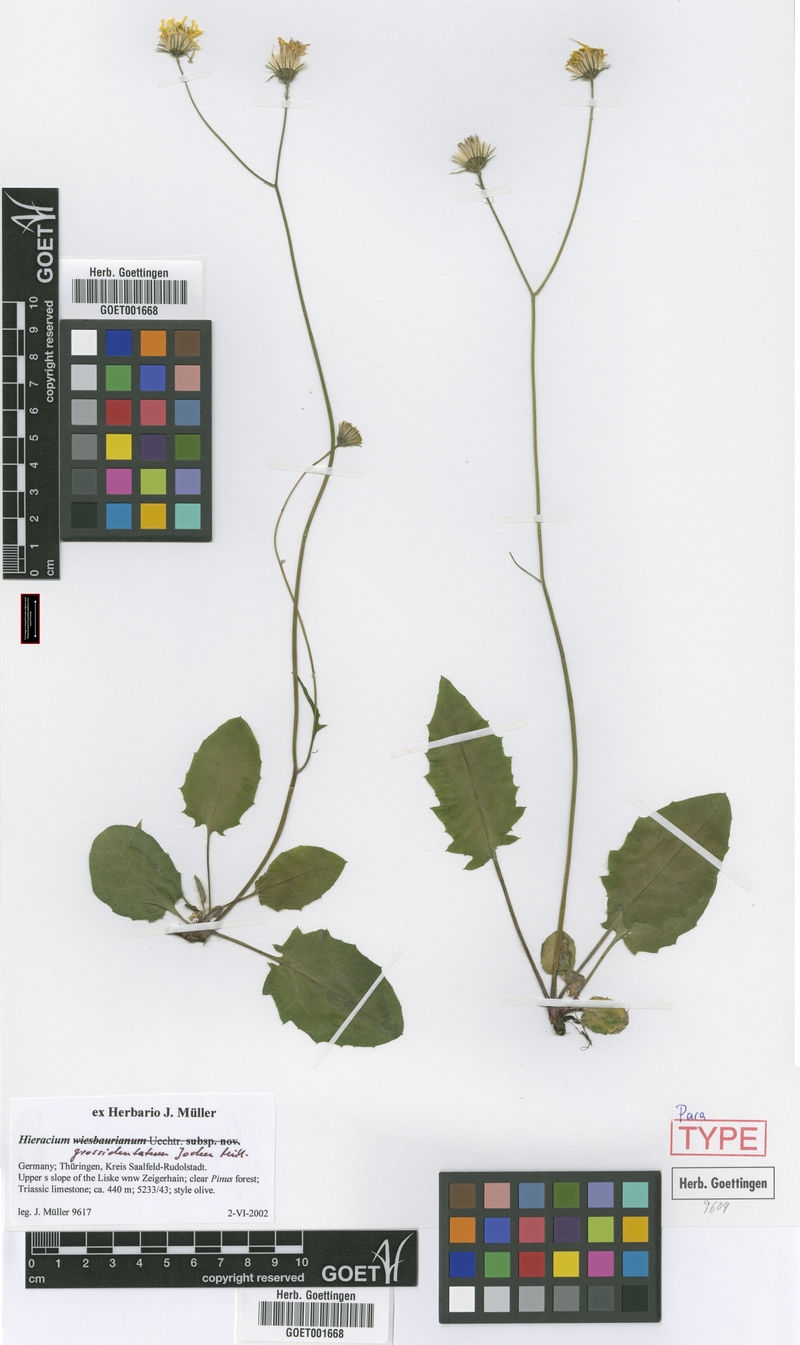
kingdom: Plantae
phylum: Tracheophyta
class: Magnoliopsida
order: Asterales
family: Asteraceae
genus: Hieracium
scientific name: Hieracium hypochoeroides
